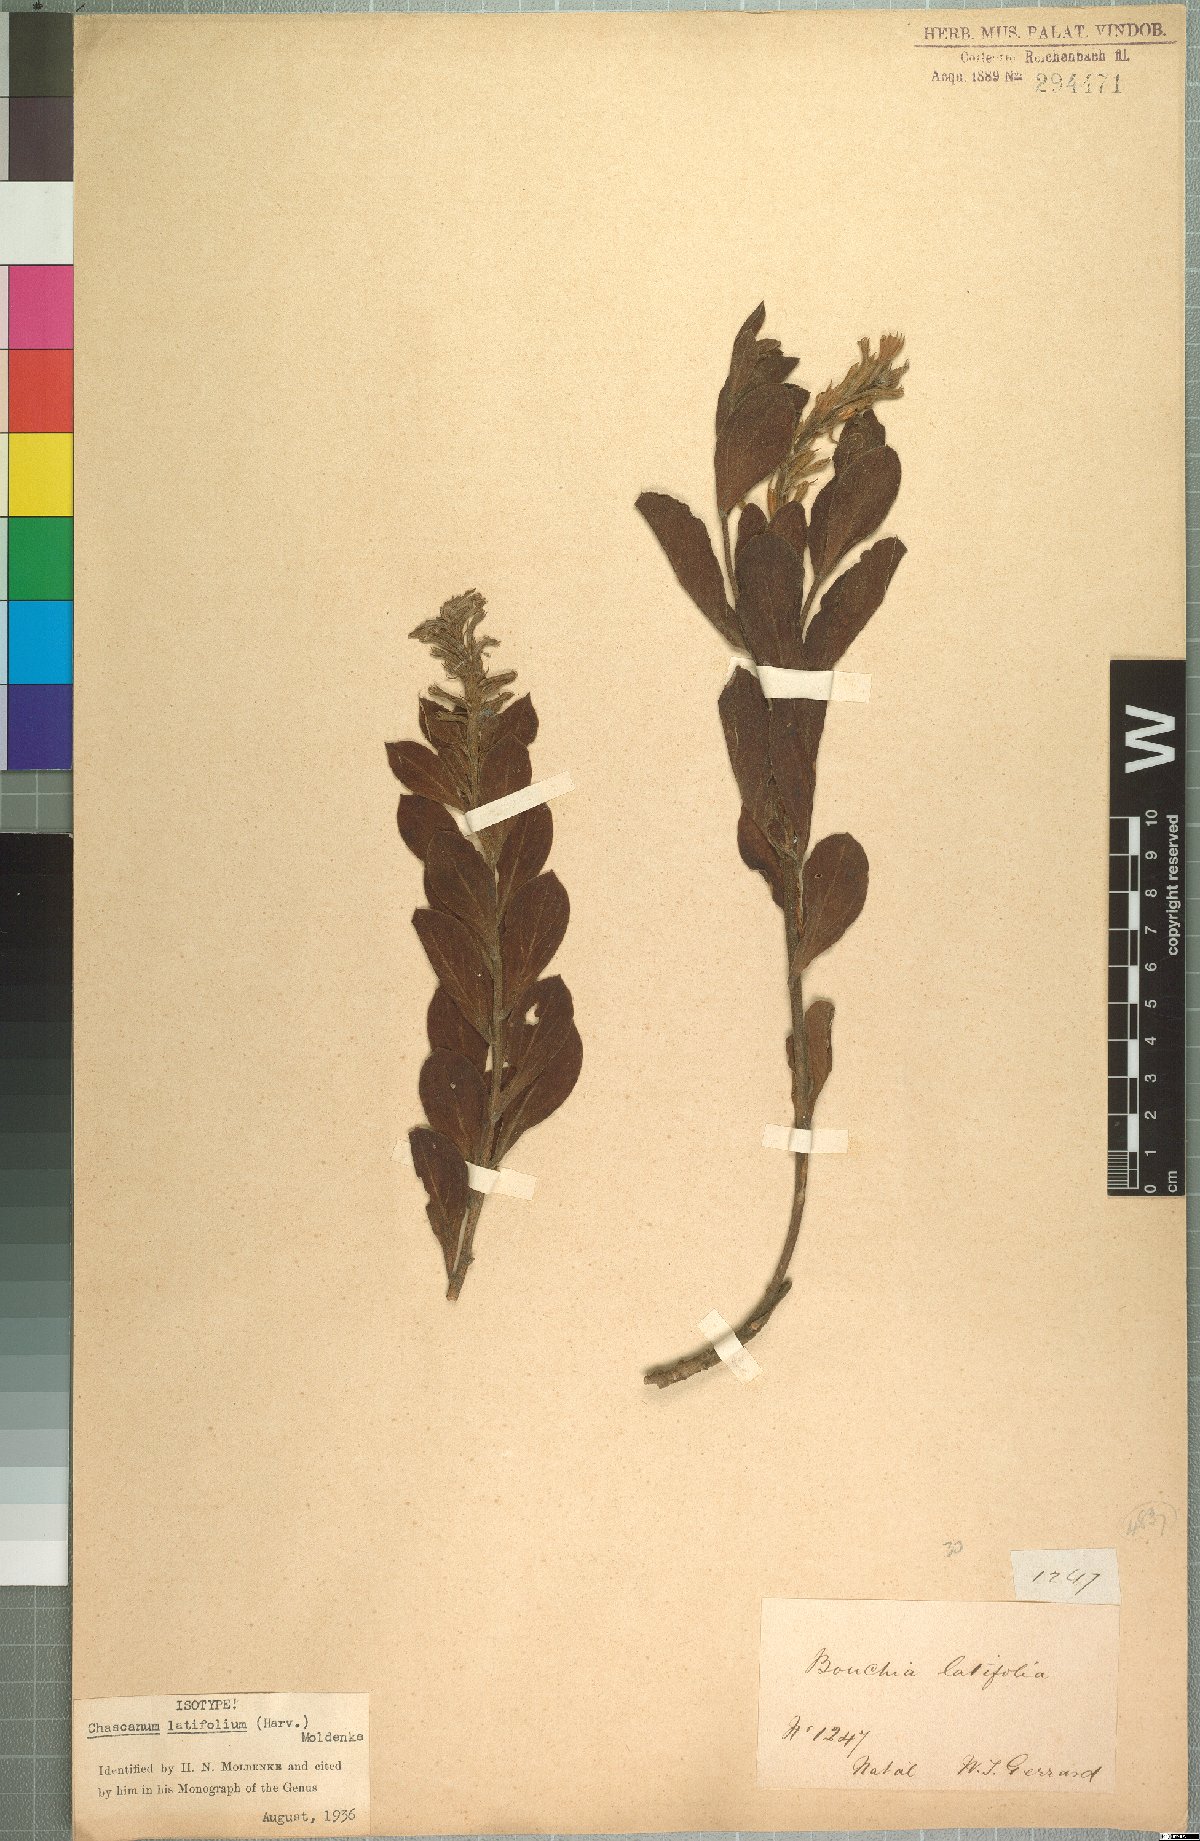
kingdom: Plantae
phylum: Tracheophyta
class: Magnoliopsida
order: Lamiales
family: Verbenaceae
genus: Chascanum
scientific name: Chascanum latifolium
